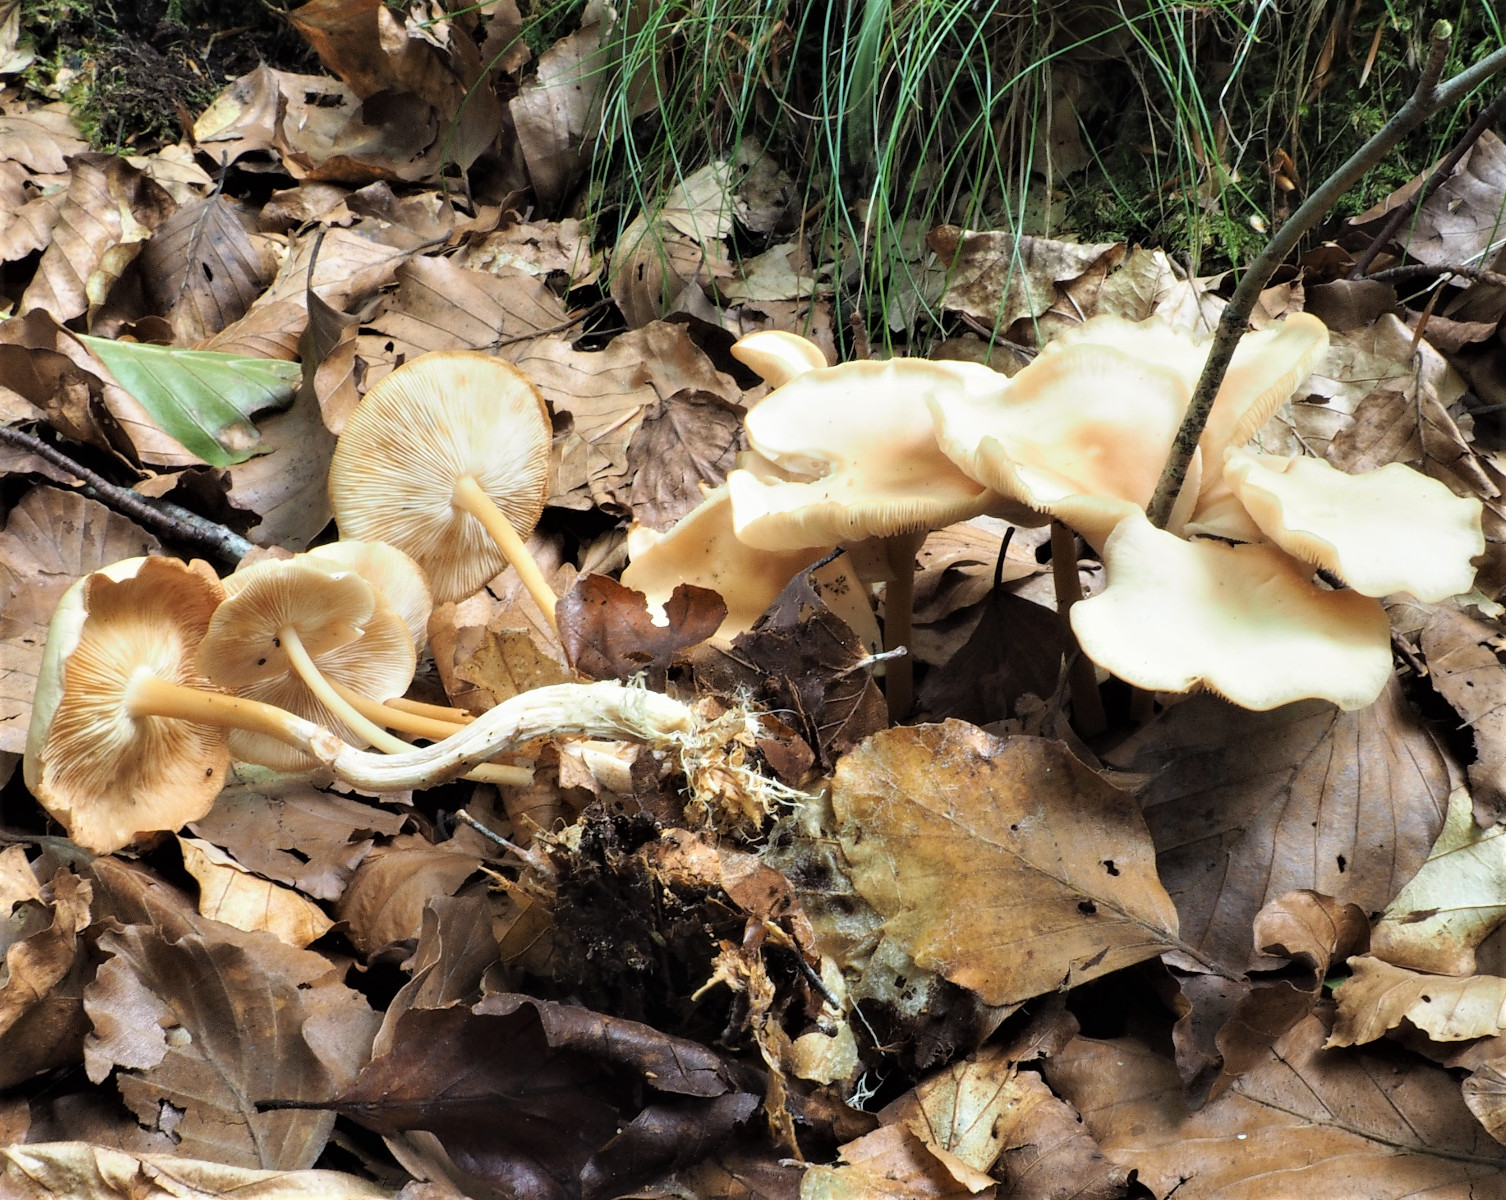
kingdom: Fungi
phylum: Basidiomycota
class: Agaricomycetes
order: Agaricales
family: Omphalotaceae
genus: Gymnopus
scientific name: Gymnopus dryophilus
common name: løv-fladhat
